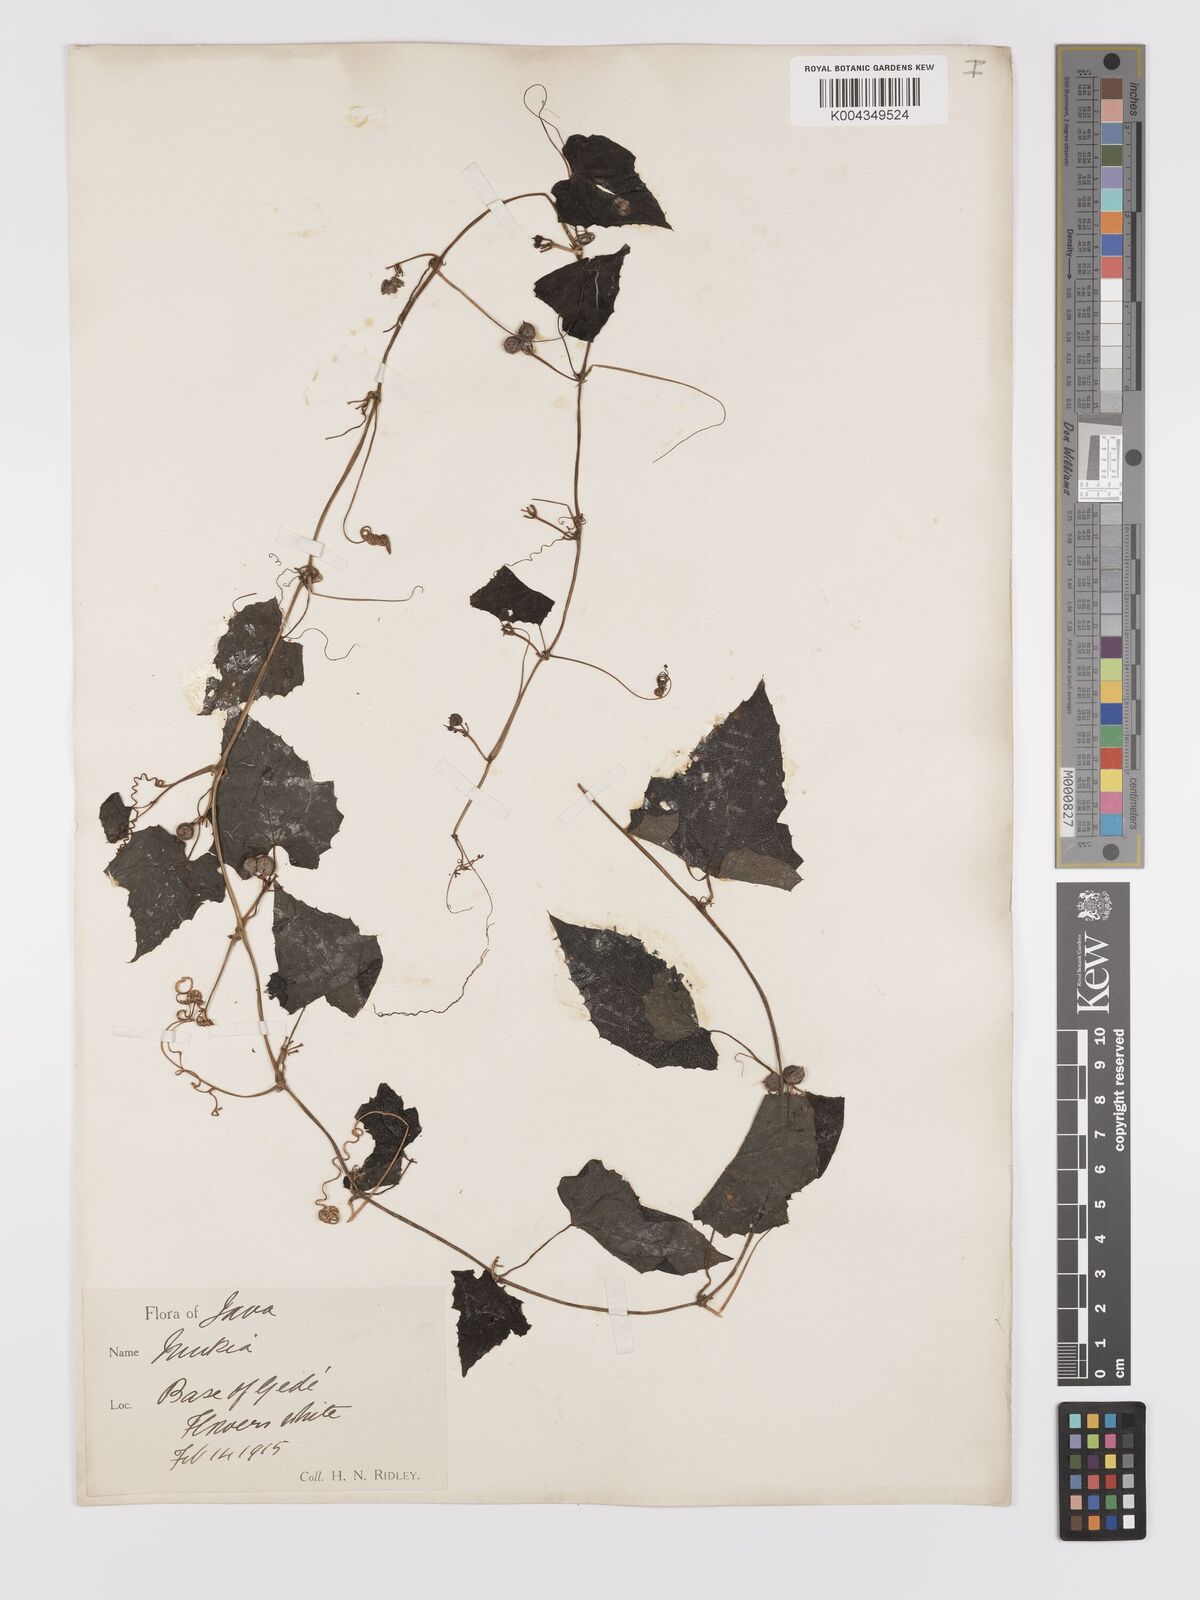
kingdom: Plantae
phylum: Tracheophyta
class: Magnoliopsida
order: Cucurbitales
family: Cucurbitaceae
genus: Zehneria
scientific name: Zehneria scabra
